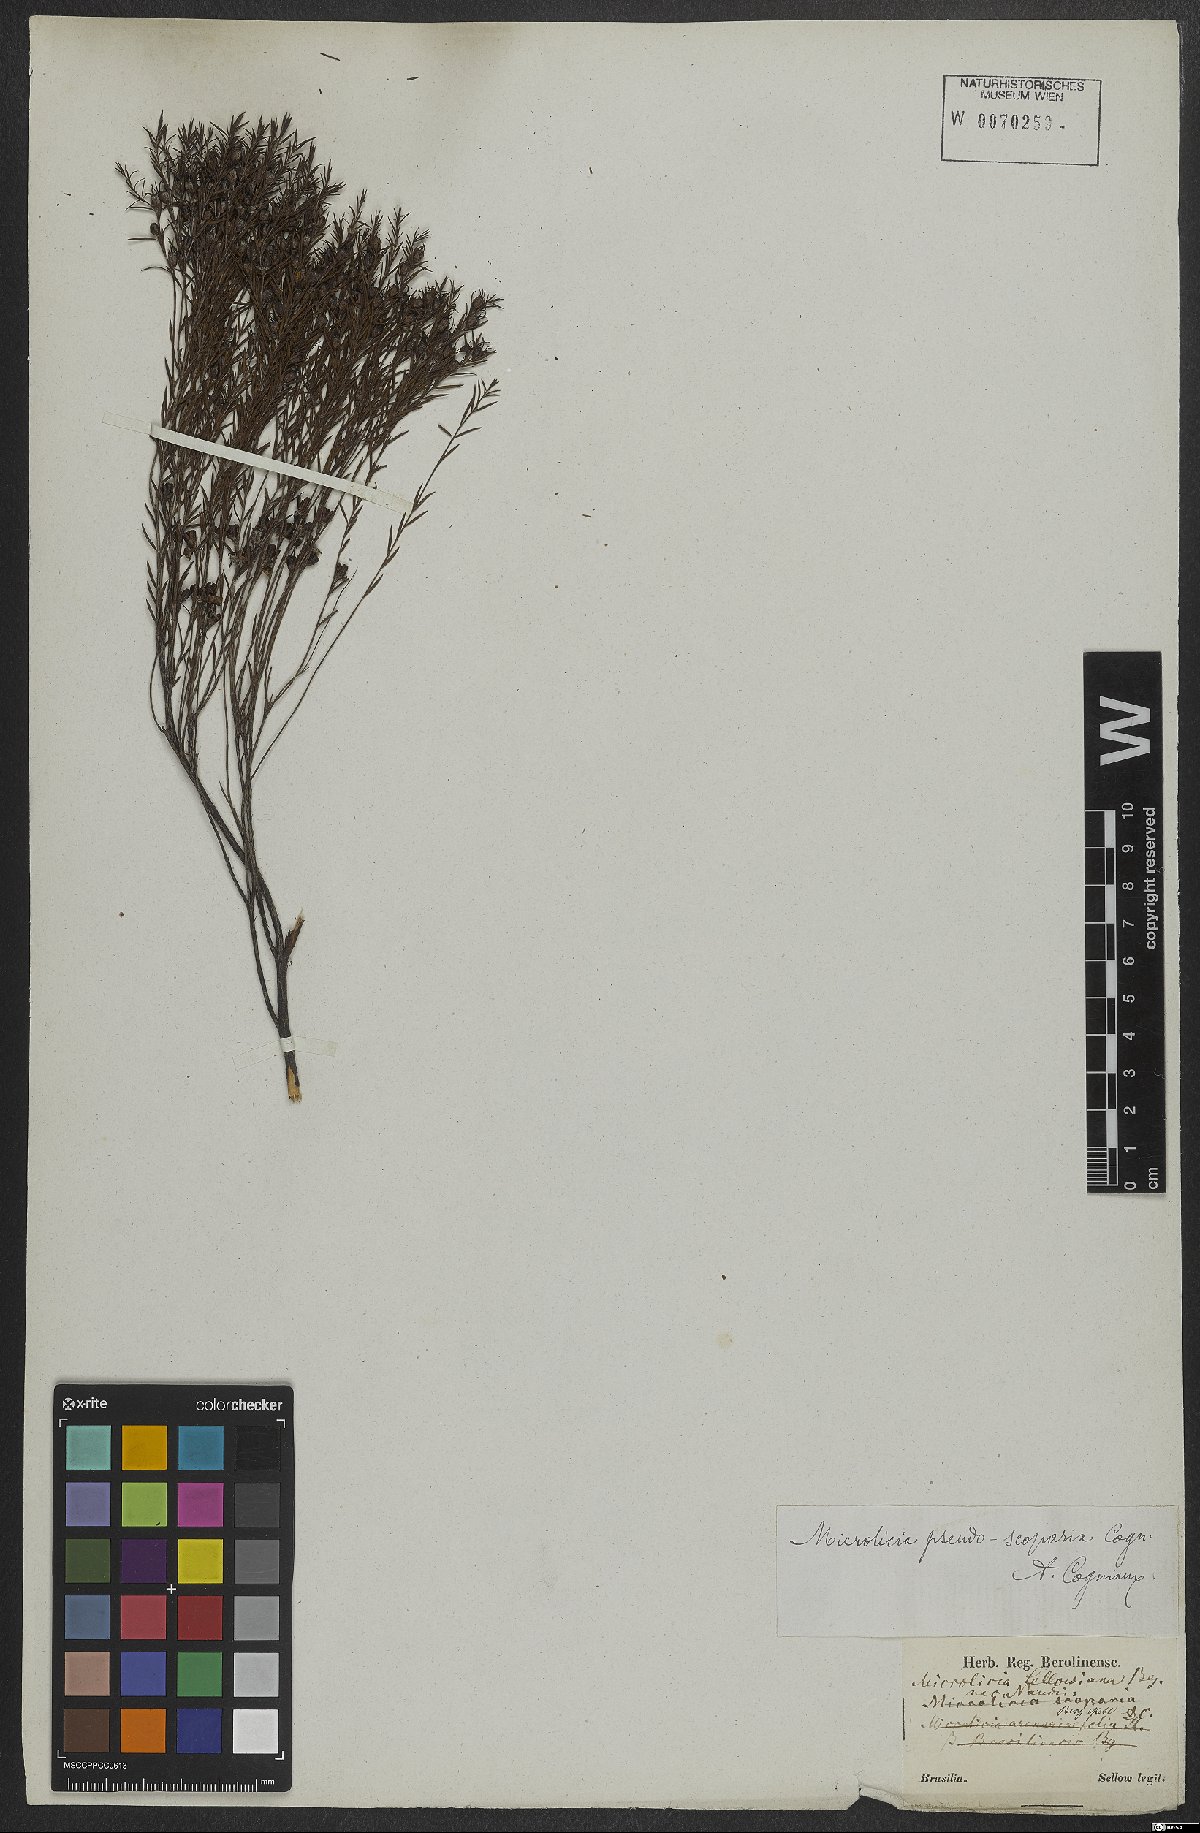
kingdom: Plantae
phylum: Tracheophyta
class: Magnoliopsida
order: Myrtales
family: Melastomataceae
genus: Microlicia
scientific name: Microlicia pseudoscoparia
